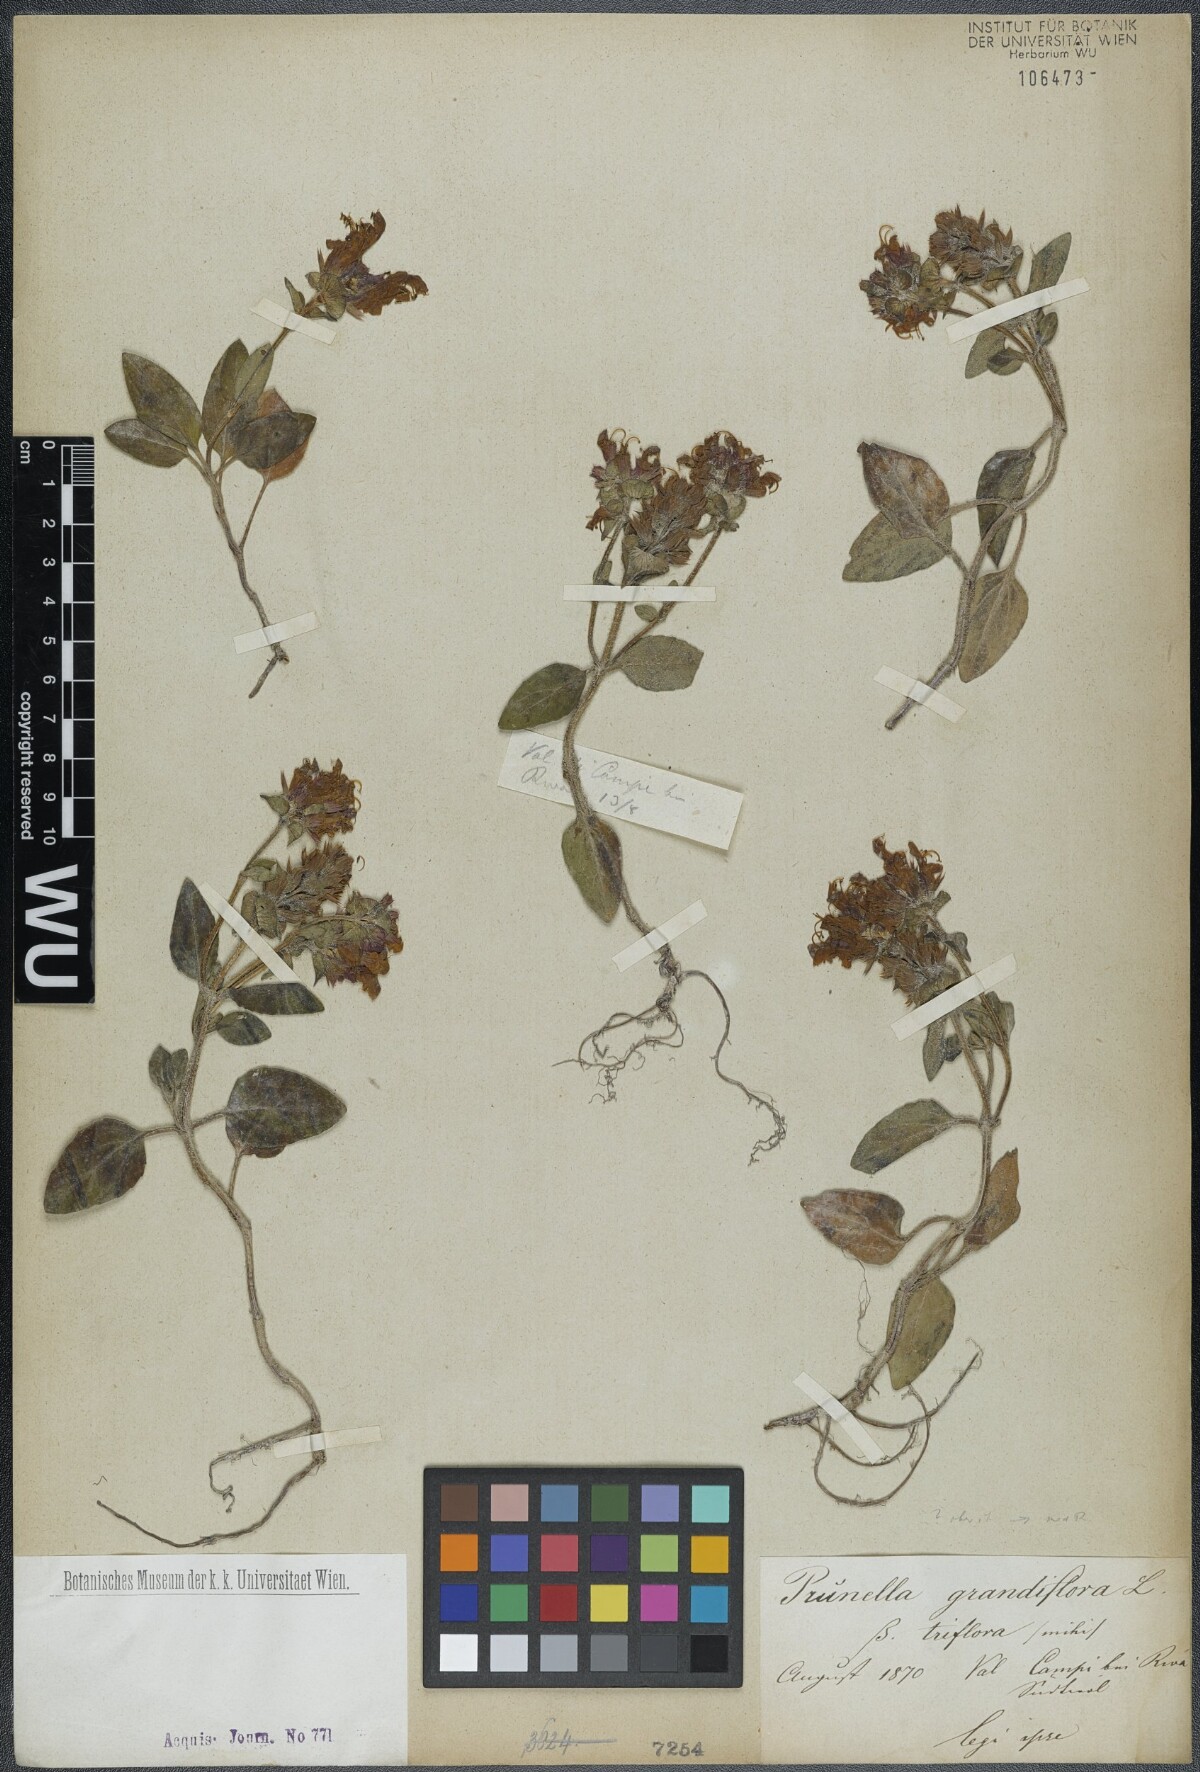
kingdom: Plantae
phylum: Tracheophyta
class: Magnoliopsida
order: Lamiales
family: Lamiaceae
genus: Prunella
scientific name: Prunella grandiflora
